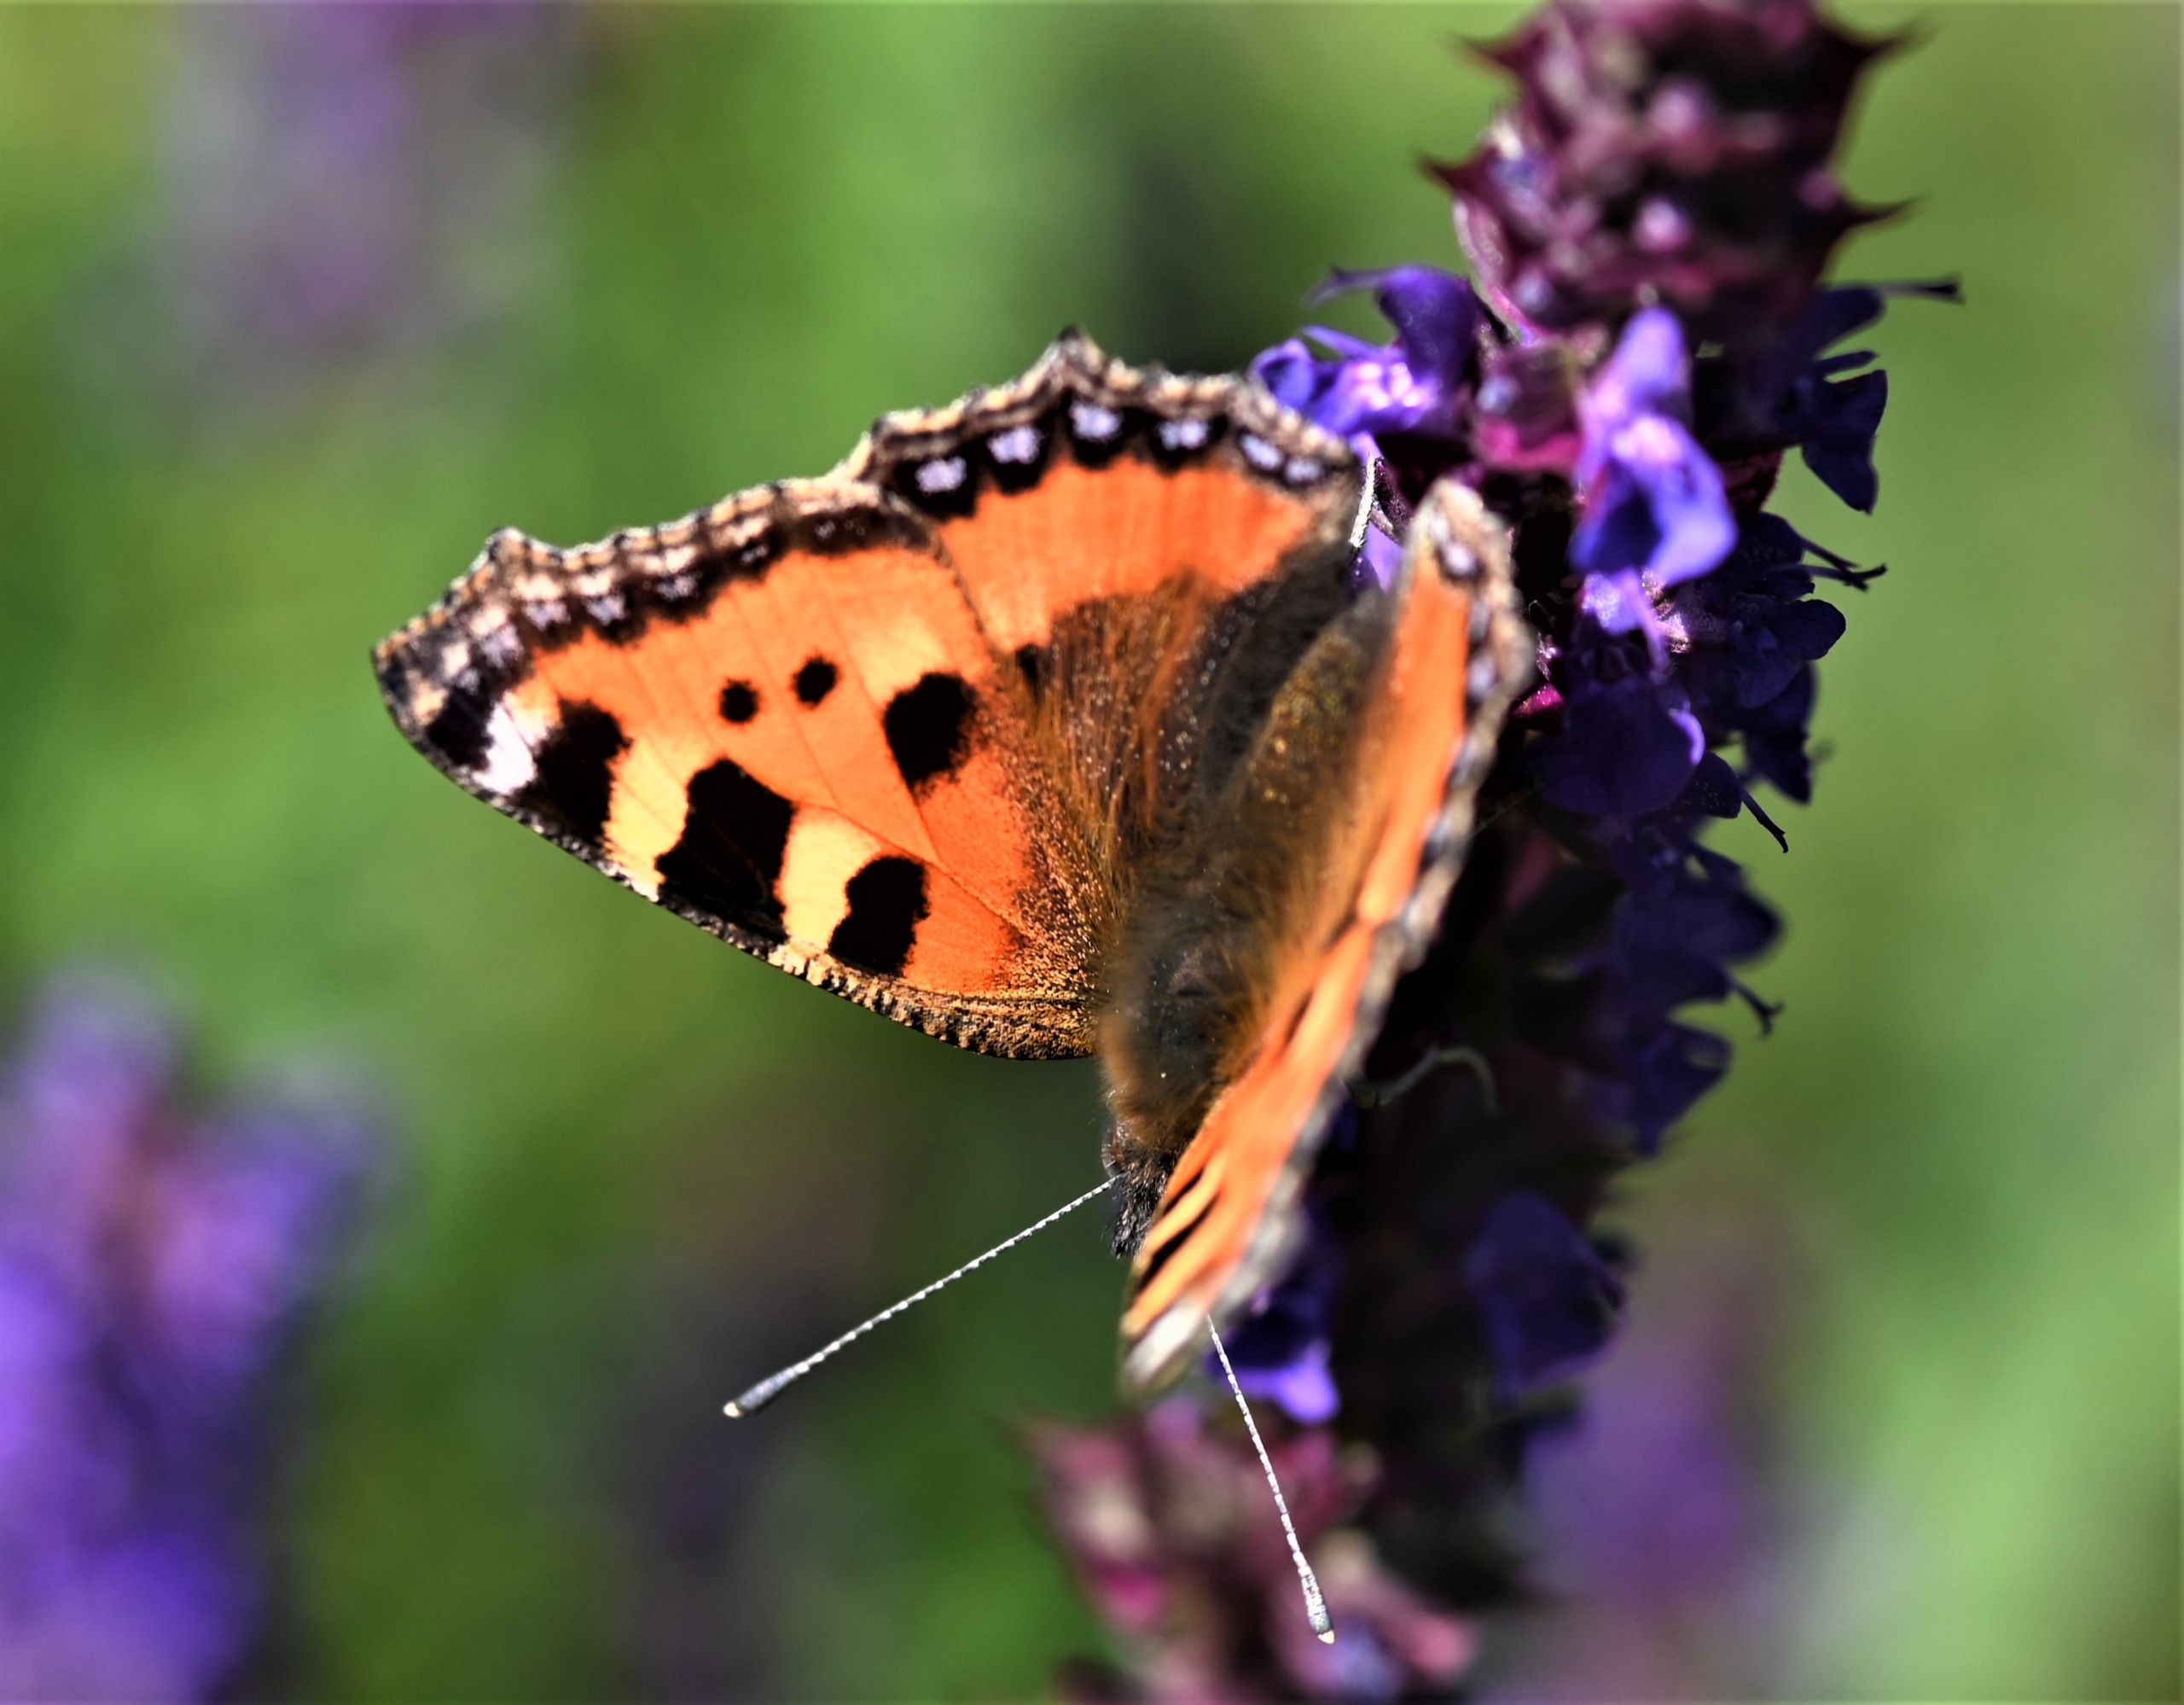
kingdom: Animalia
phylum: Arthropoda
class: Insecta
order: Lepidoptera
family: Nymphalidae
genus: Aglais
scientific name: Aglais urticae
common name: Nældens takvinge
